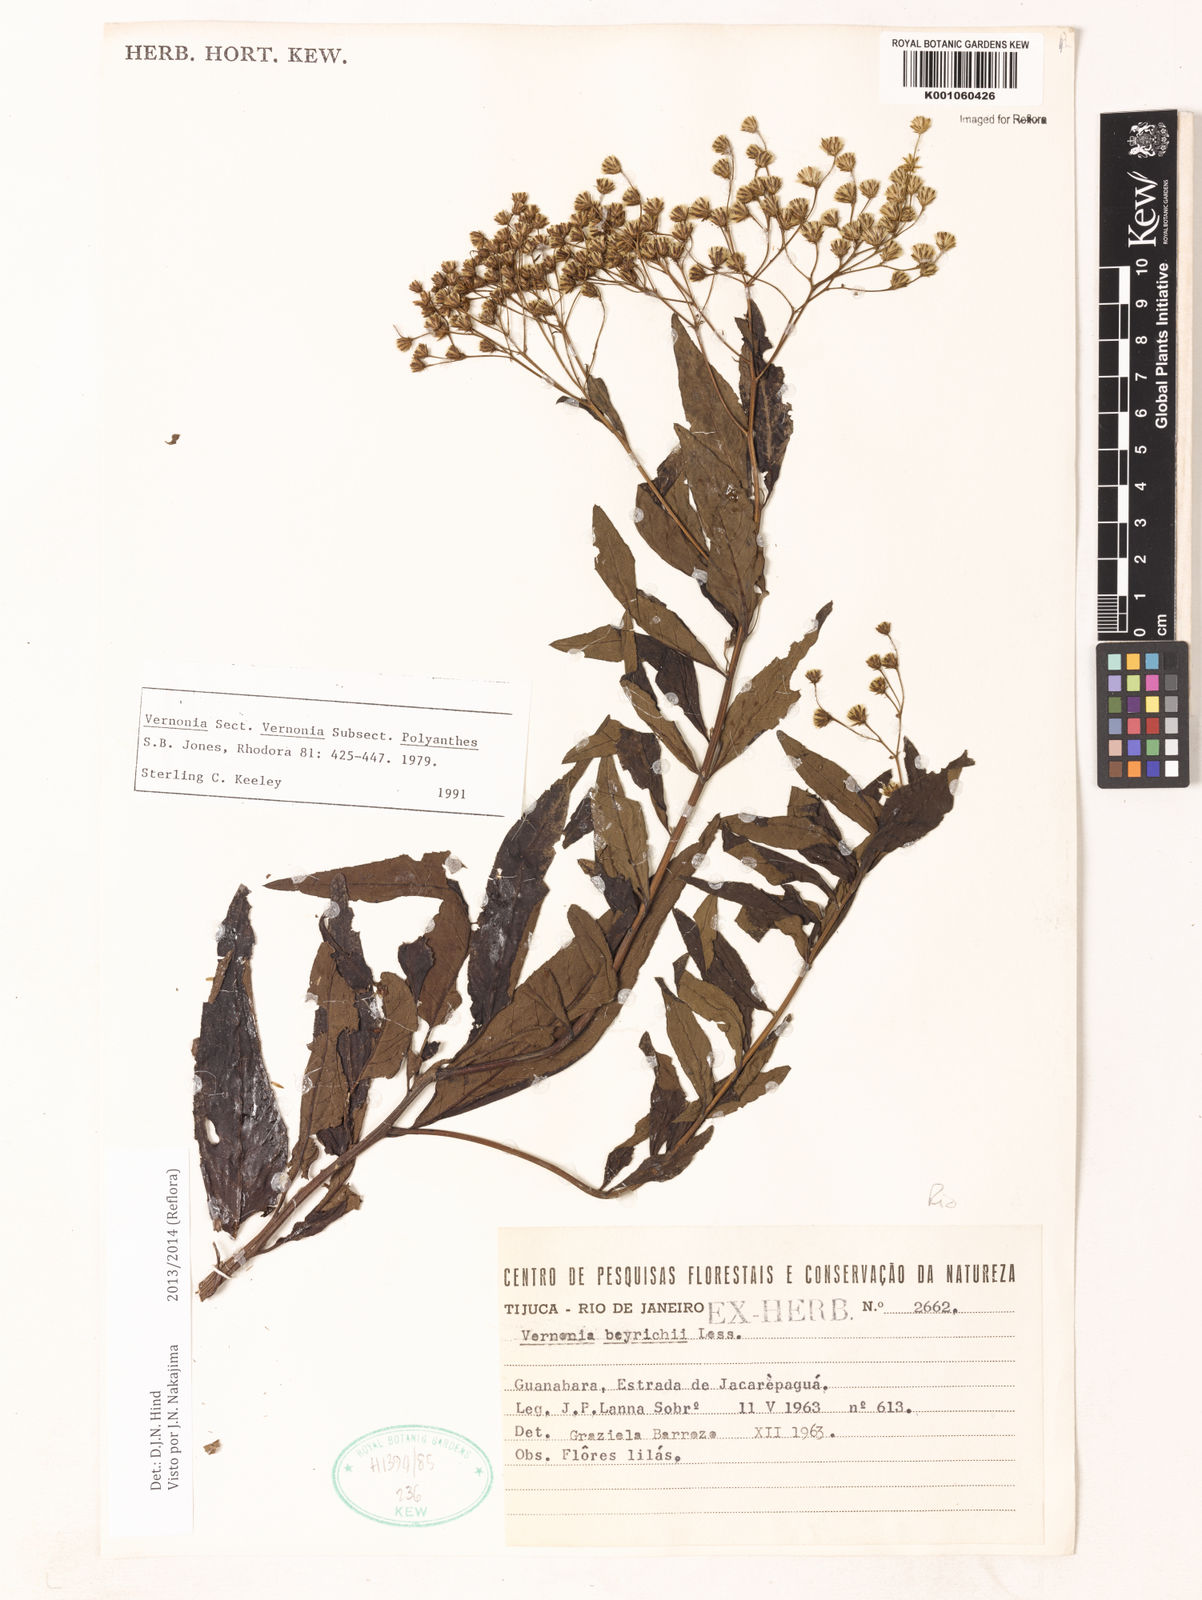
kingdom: Plantae
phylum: Tracheophyta
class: Magnoliopsida
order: Asterales
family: Asteraceae
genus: Vernonanthura
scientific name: Vernonanthura beyrichii
